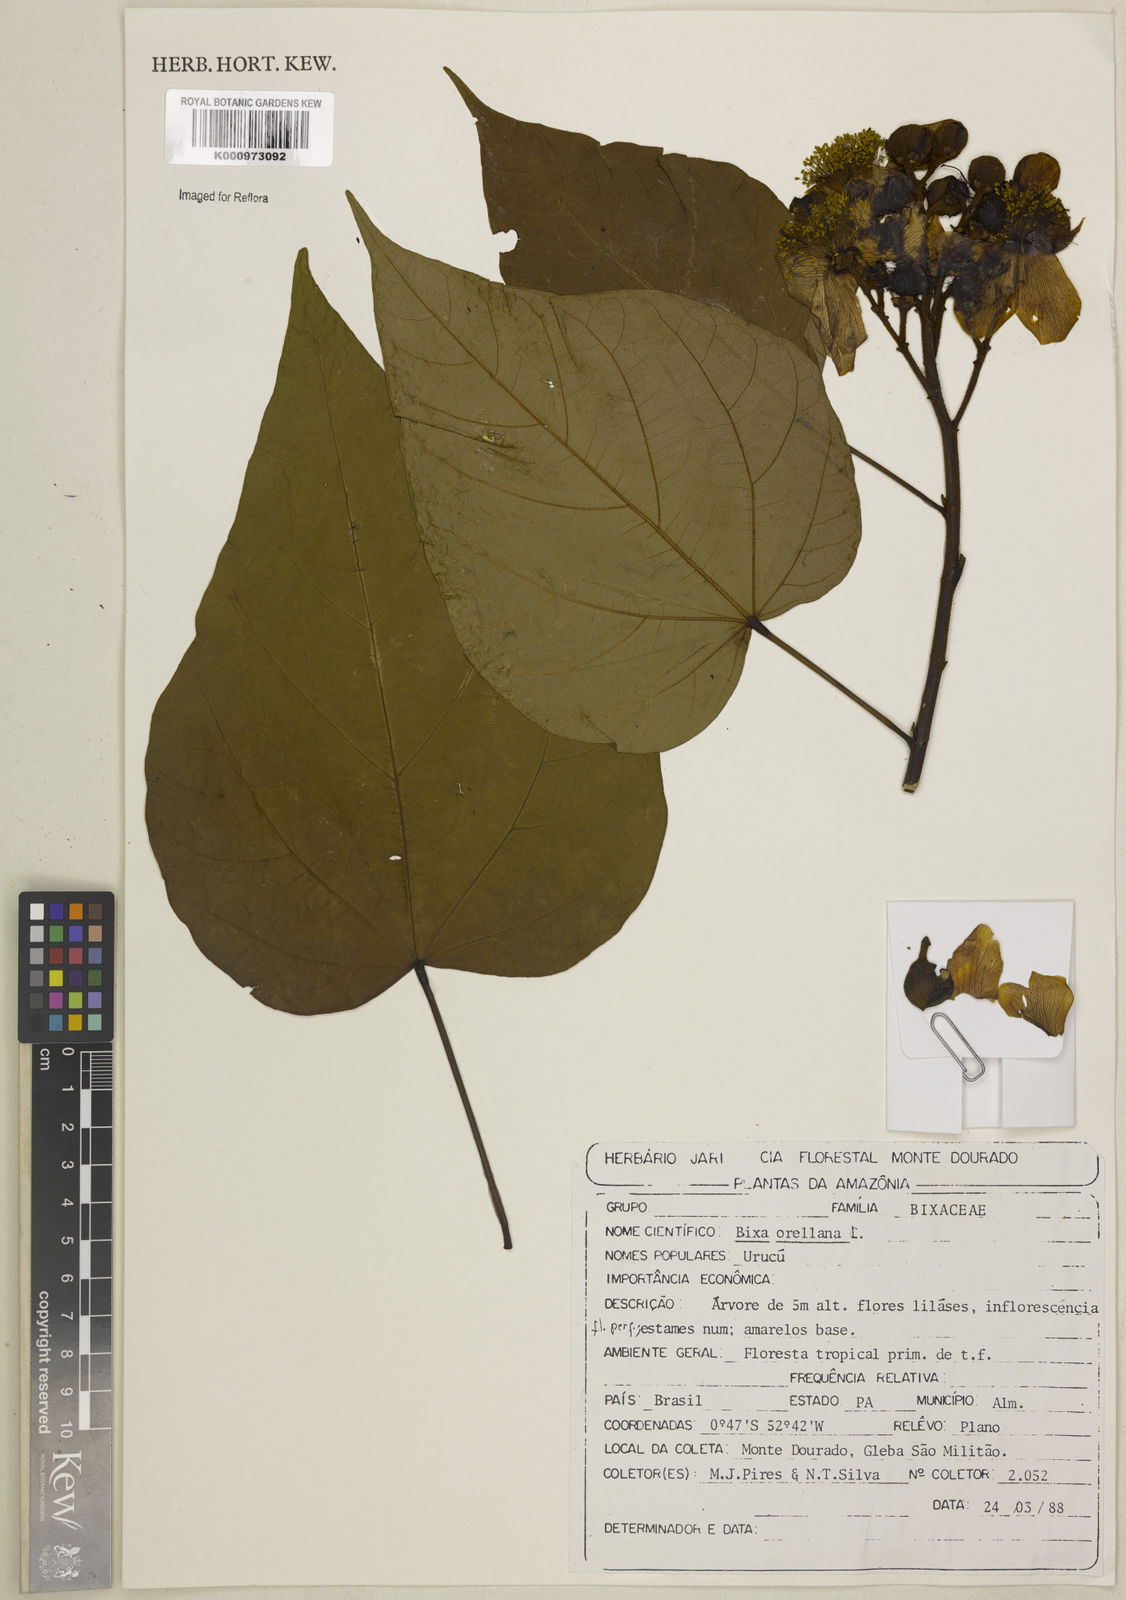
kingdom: Plantae
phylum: Tracheophyta
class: Magnoliopsida
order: Malvales
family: Bixaceae
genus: Bixa
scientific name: Bixa excelsa
